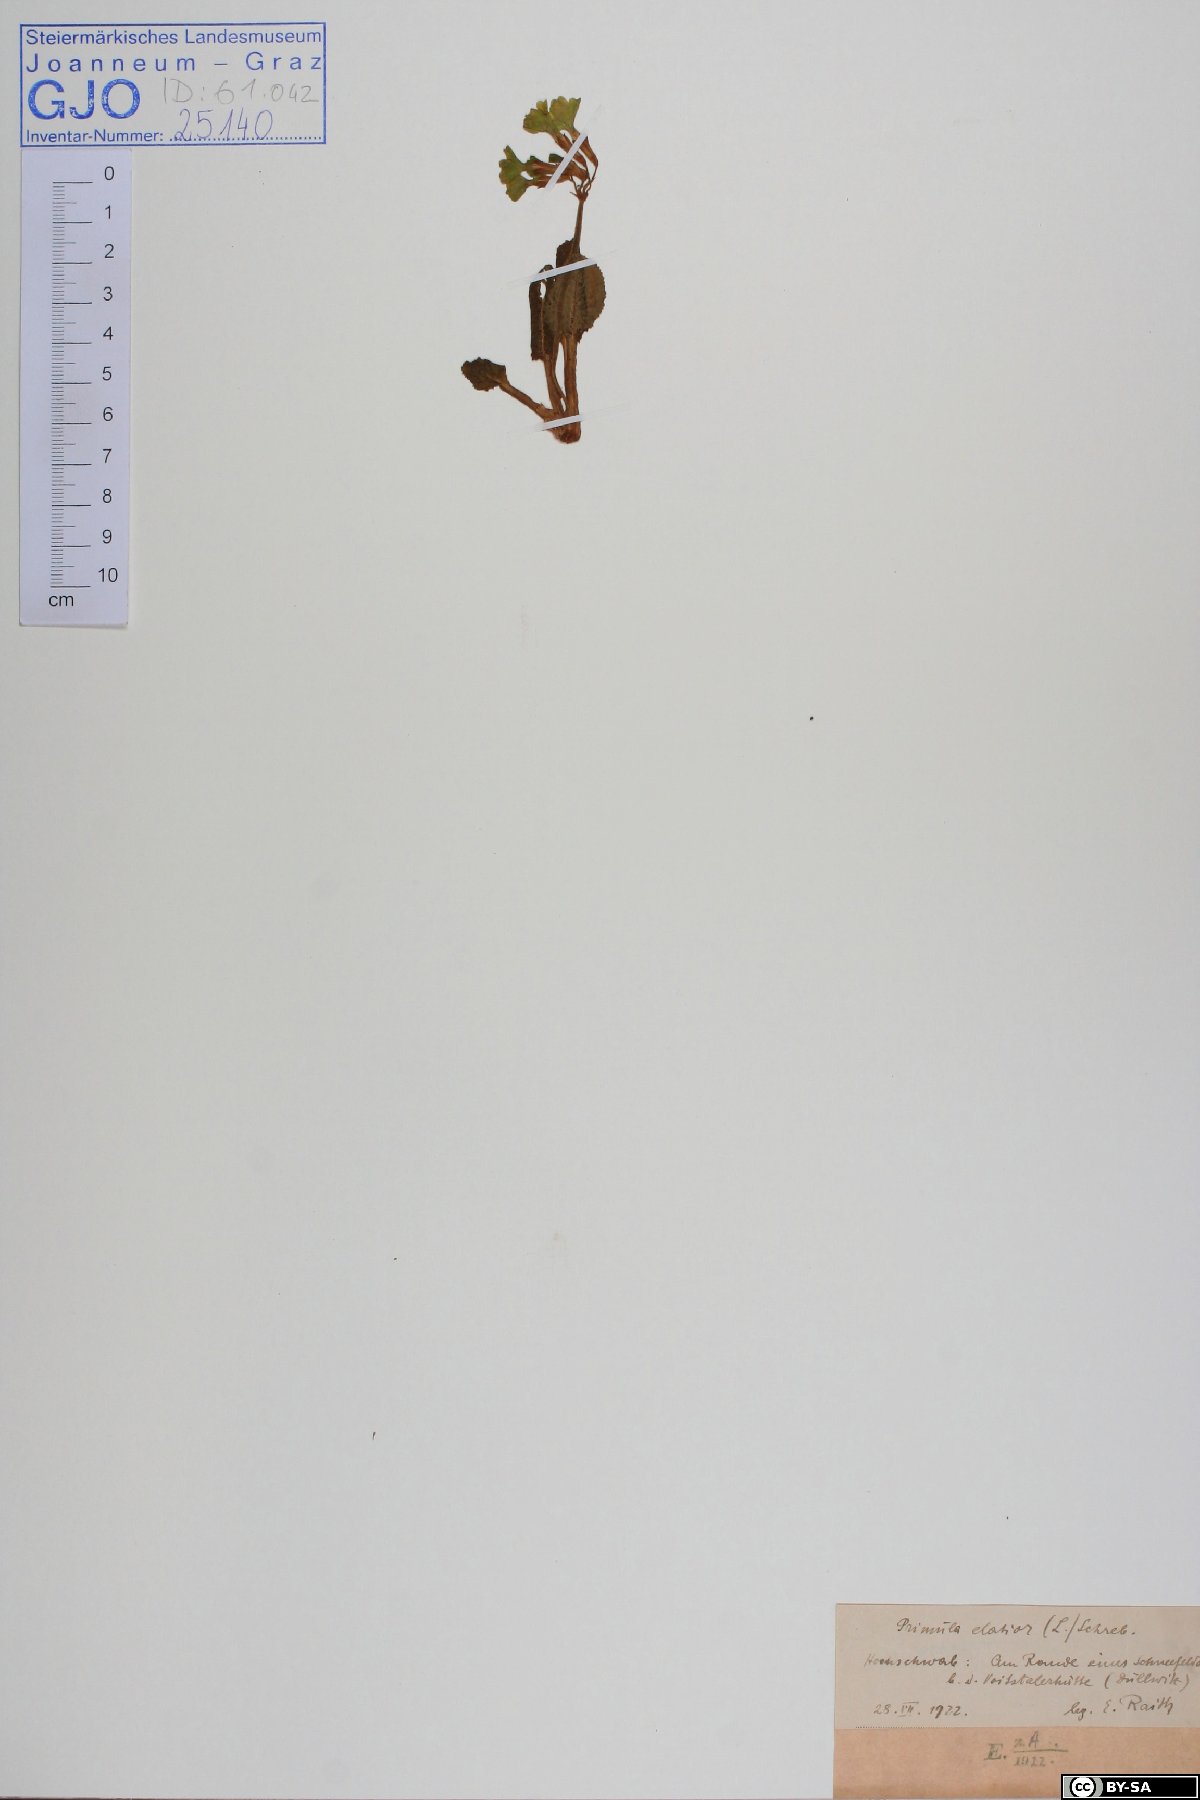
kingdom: Plantae
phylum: Tracheophyta
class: Magnoliopsida
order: Ericales
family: Primulaceae
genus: Primula
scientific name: Primula elatior
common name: Oxlip
